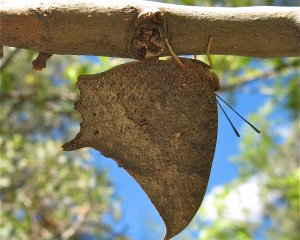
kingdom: Animalia
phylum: Arthropoda
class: Insecta
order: Lepidoptera
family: Nymphalidae
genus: Anaea
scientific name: Anaea aidea
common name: Tropical Leafwing
